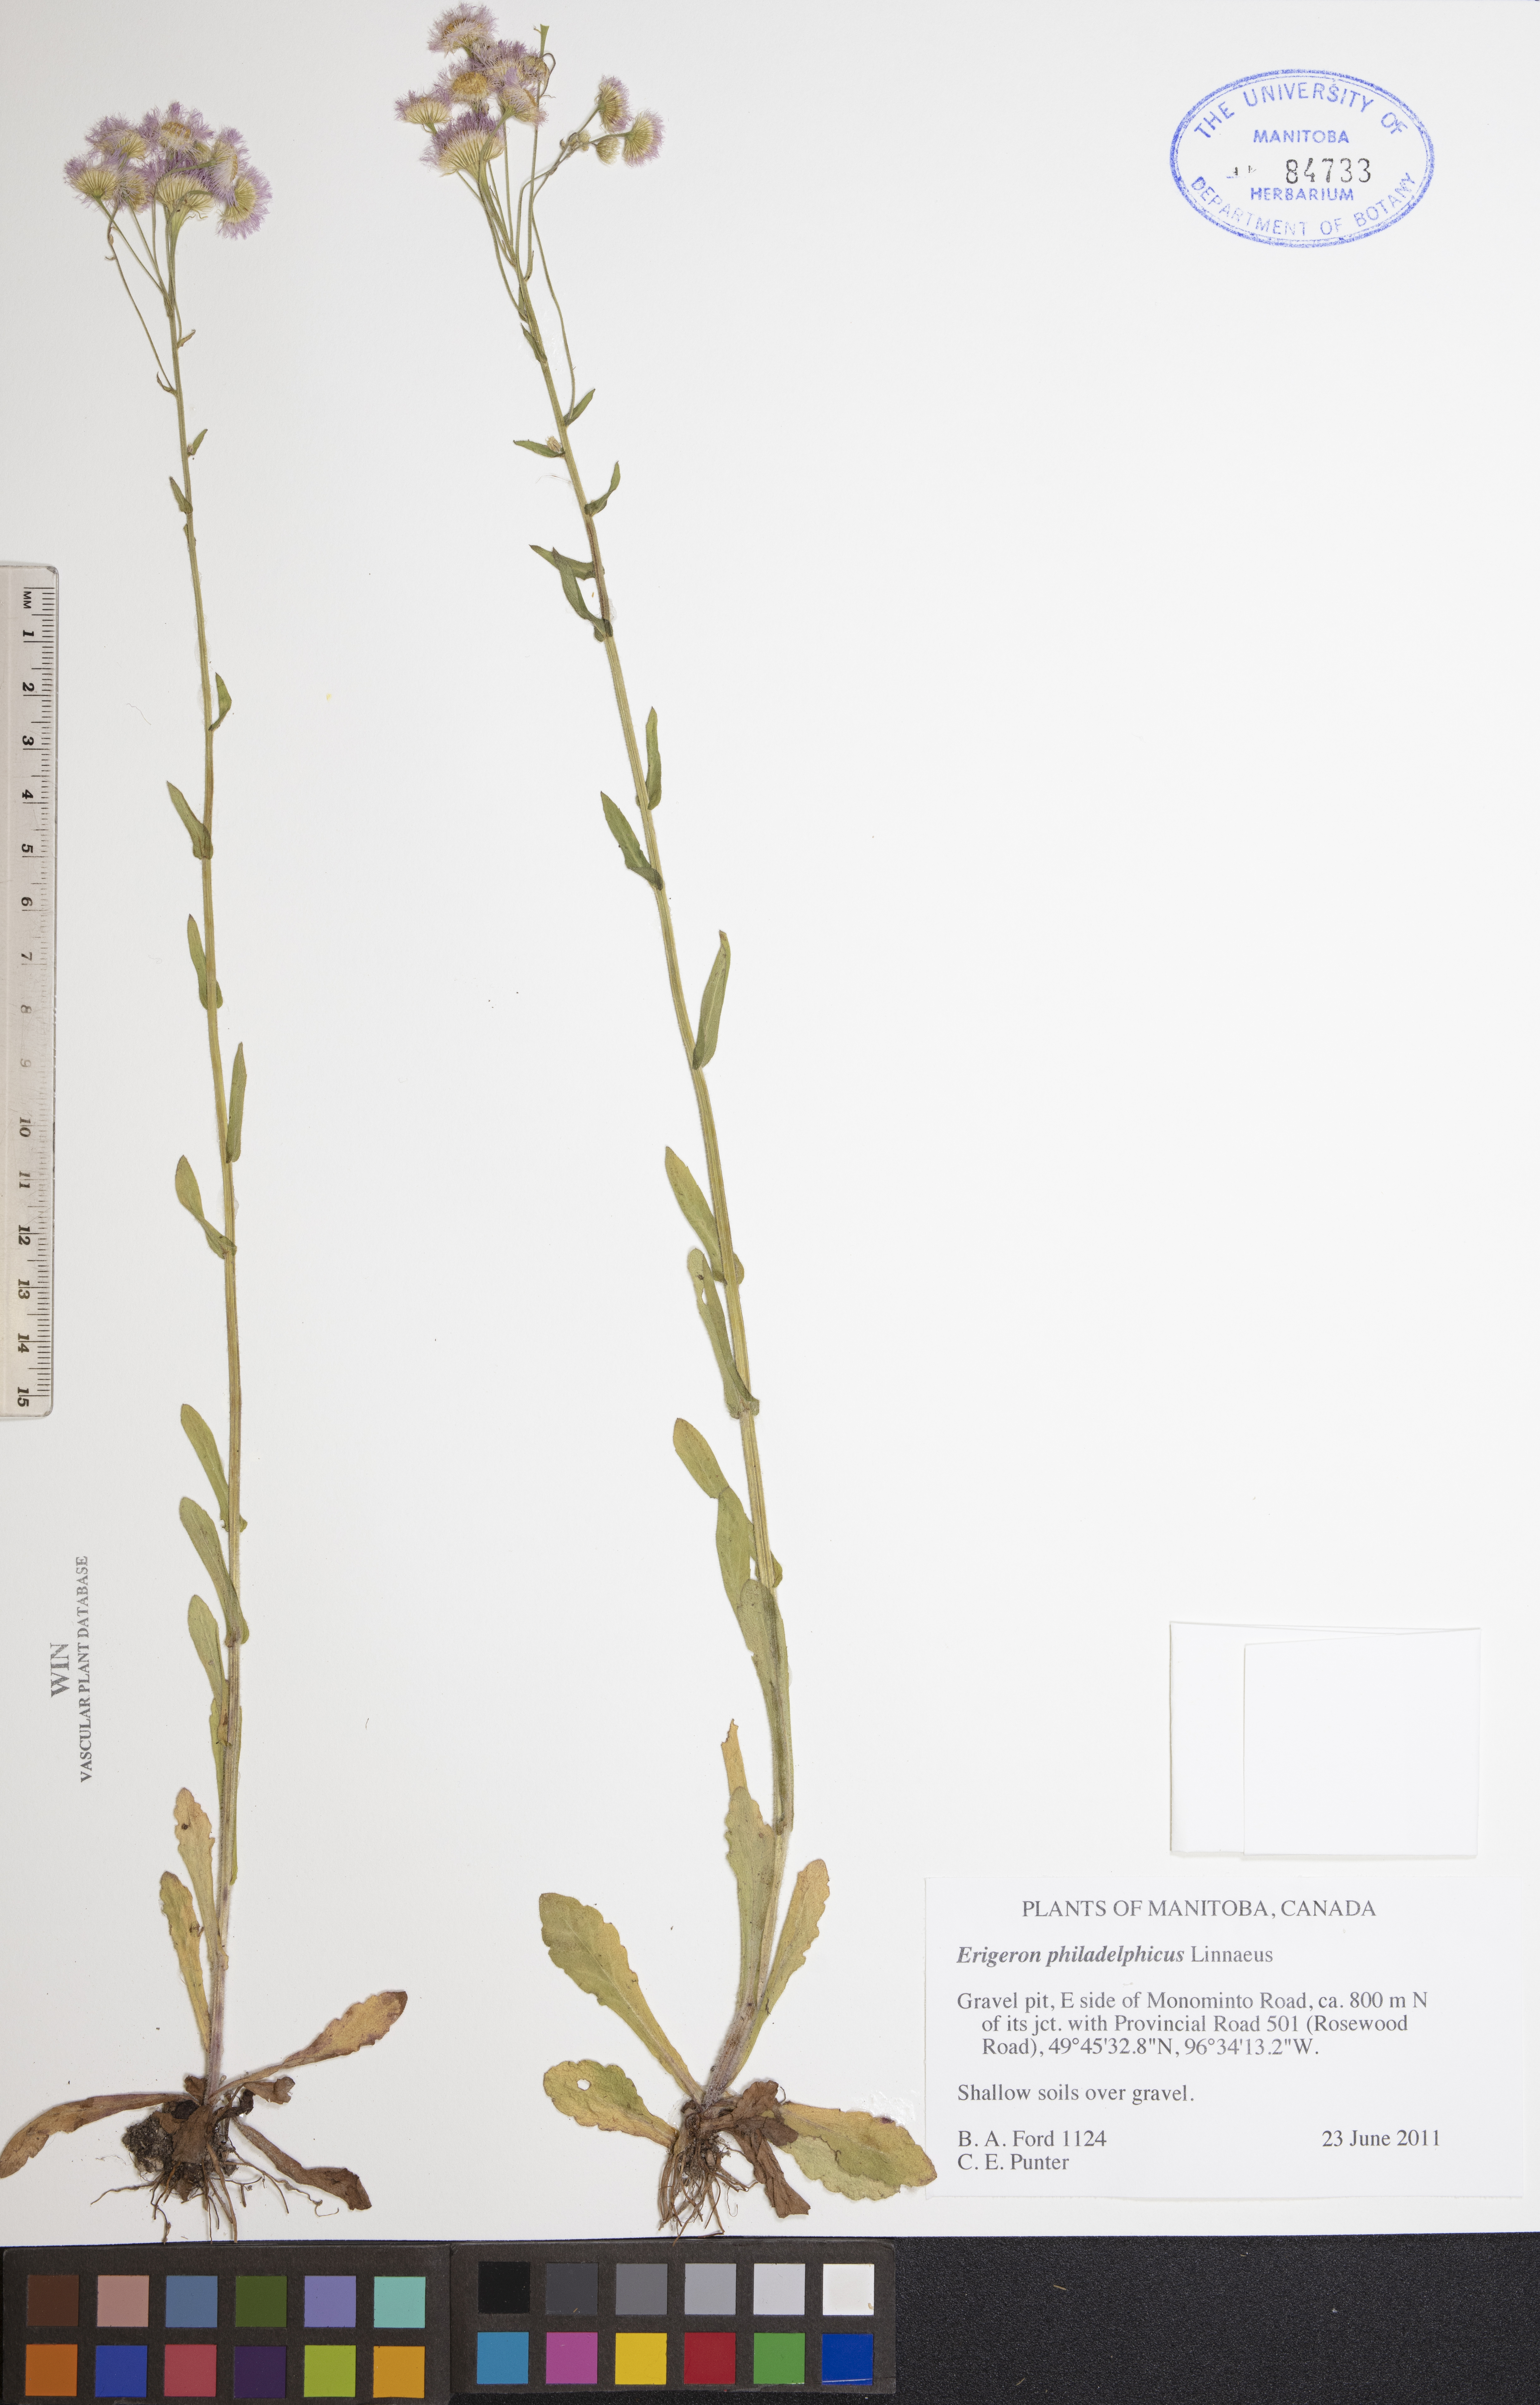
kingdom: Plantae
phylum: Tracheophyta
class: Magnoliopsida
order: Asterales
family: Asteraceae
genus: Erigeron
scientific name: Erigeron philadelphicus
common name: Robin's-plantain
